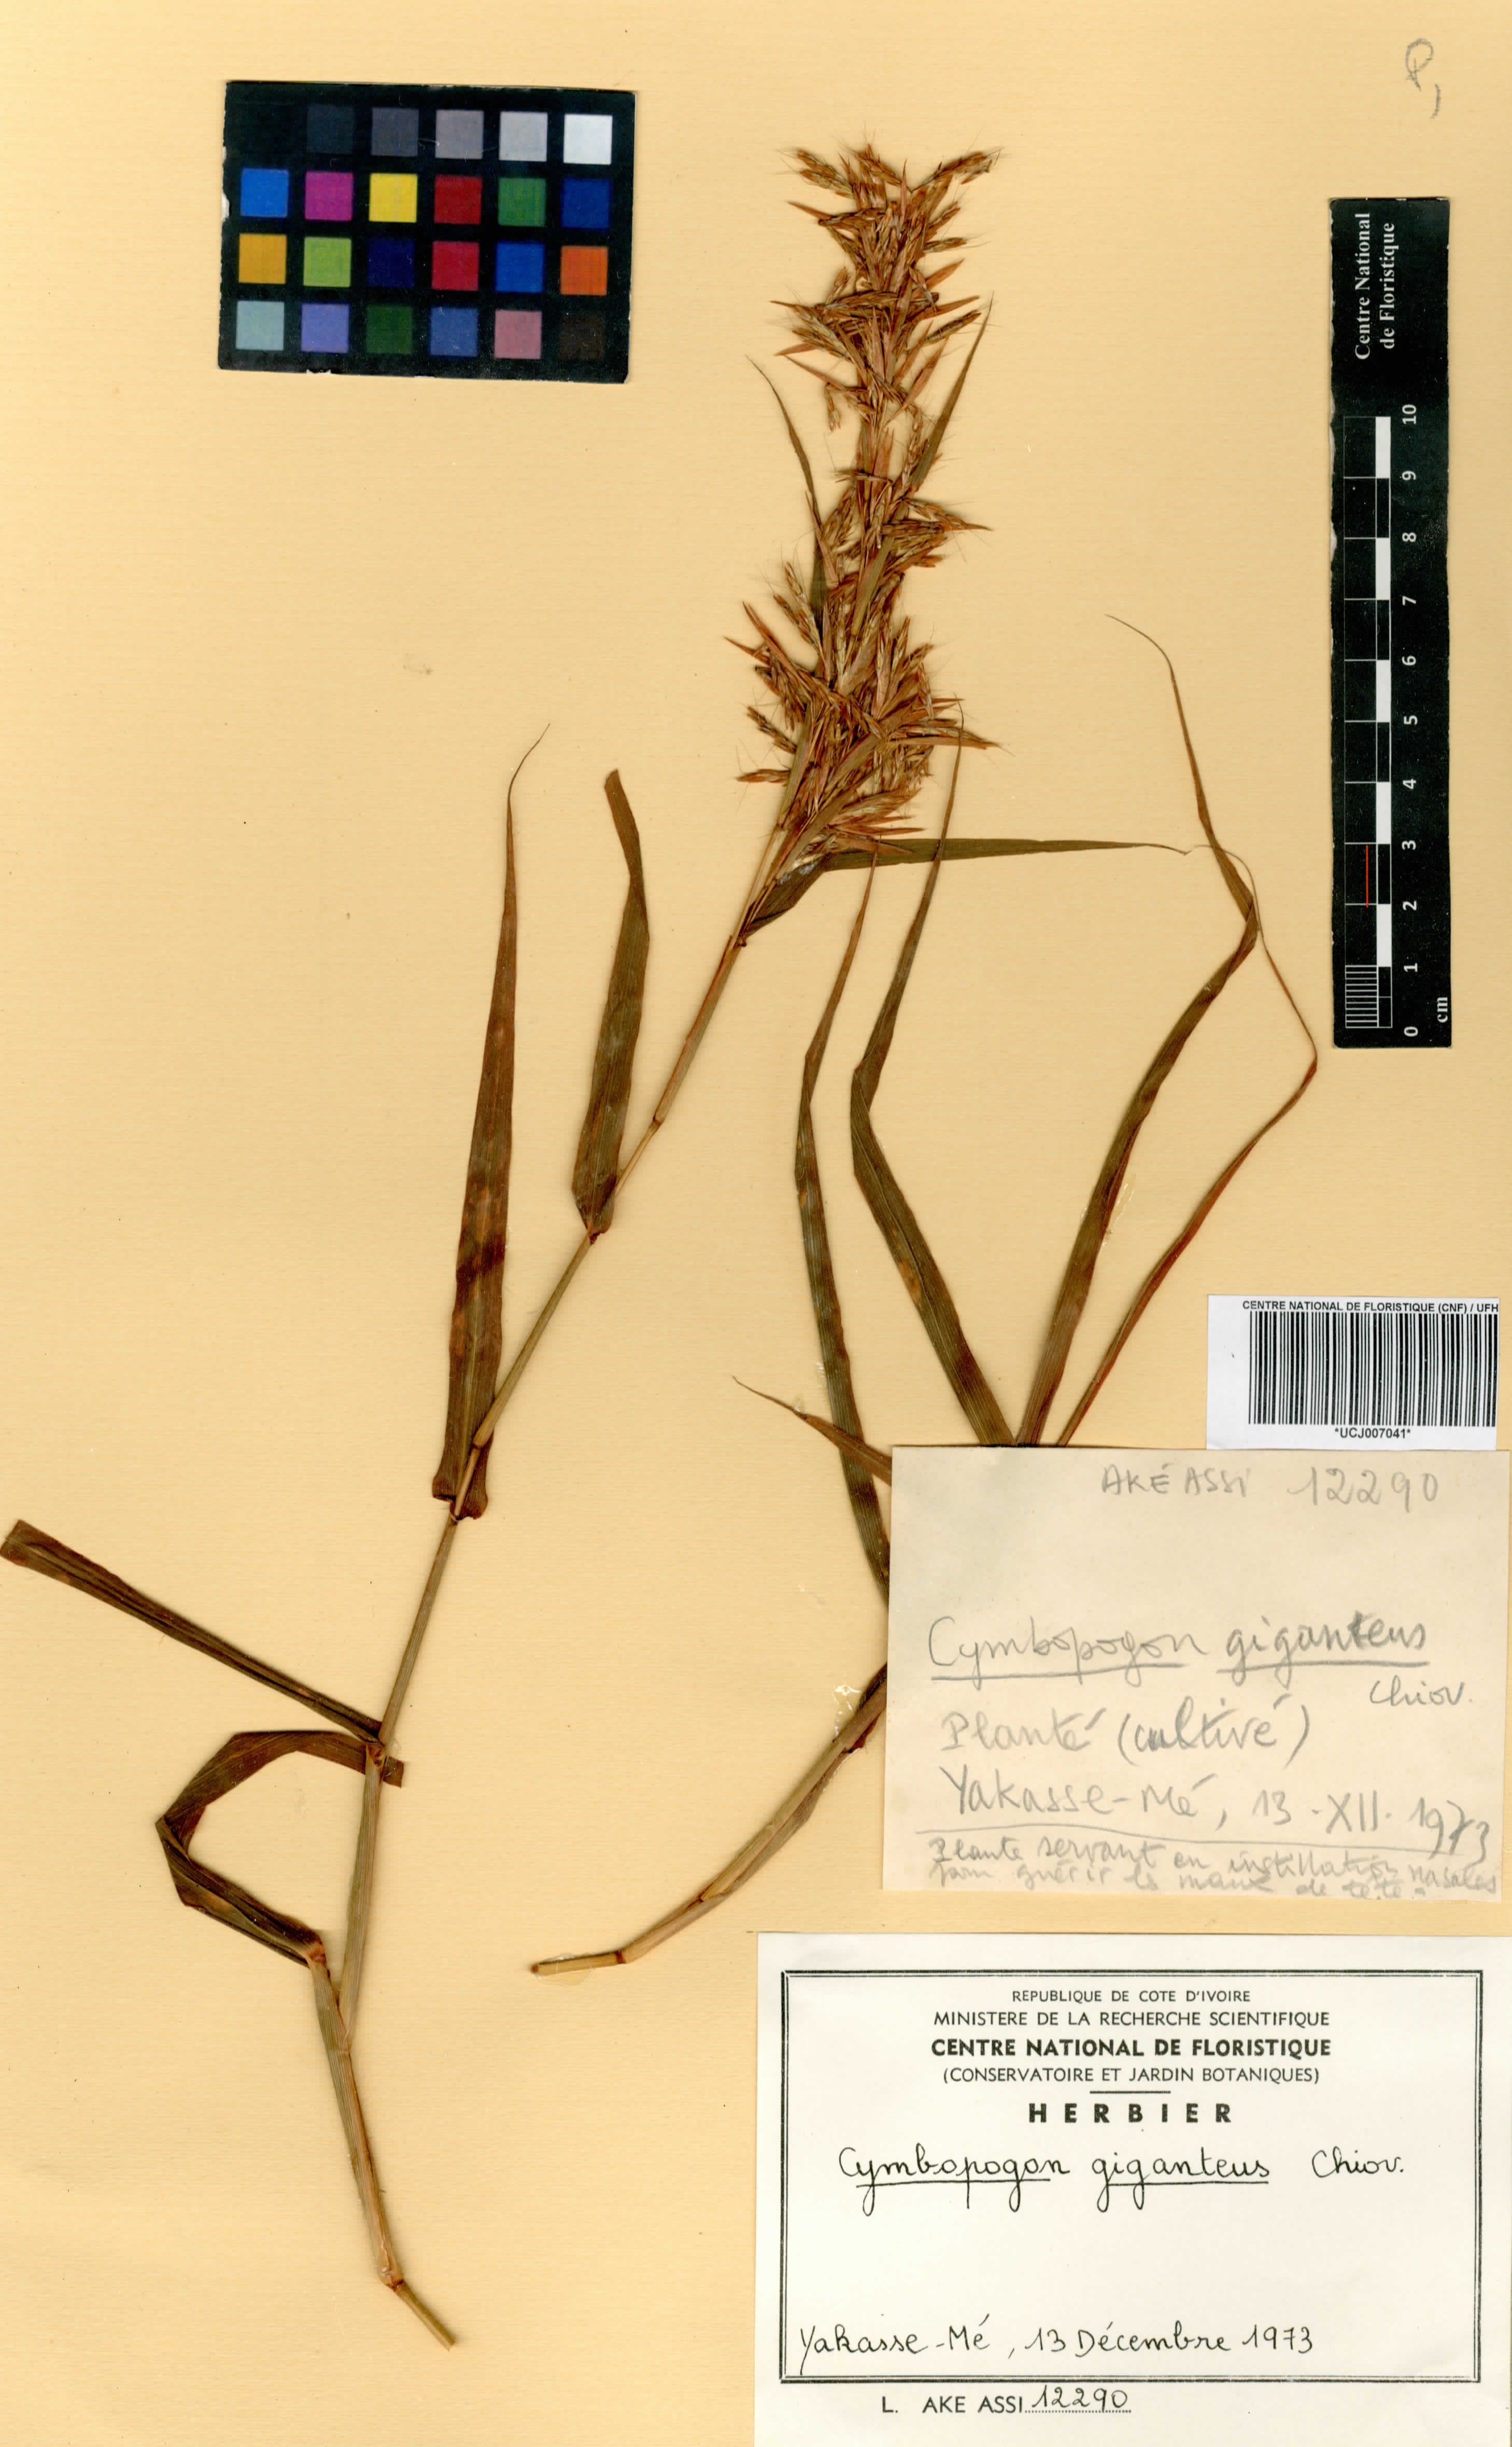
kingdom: Plantae
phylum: Tracheophyta
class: Liliopsida
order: Poales
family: Poaceae
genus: Cymbopogon
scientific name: Cymbopogon giganteus
